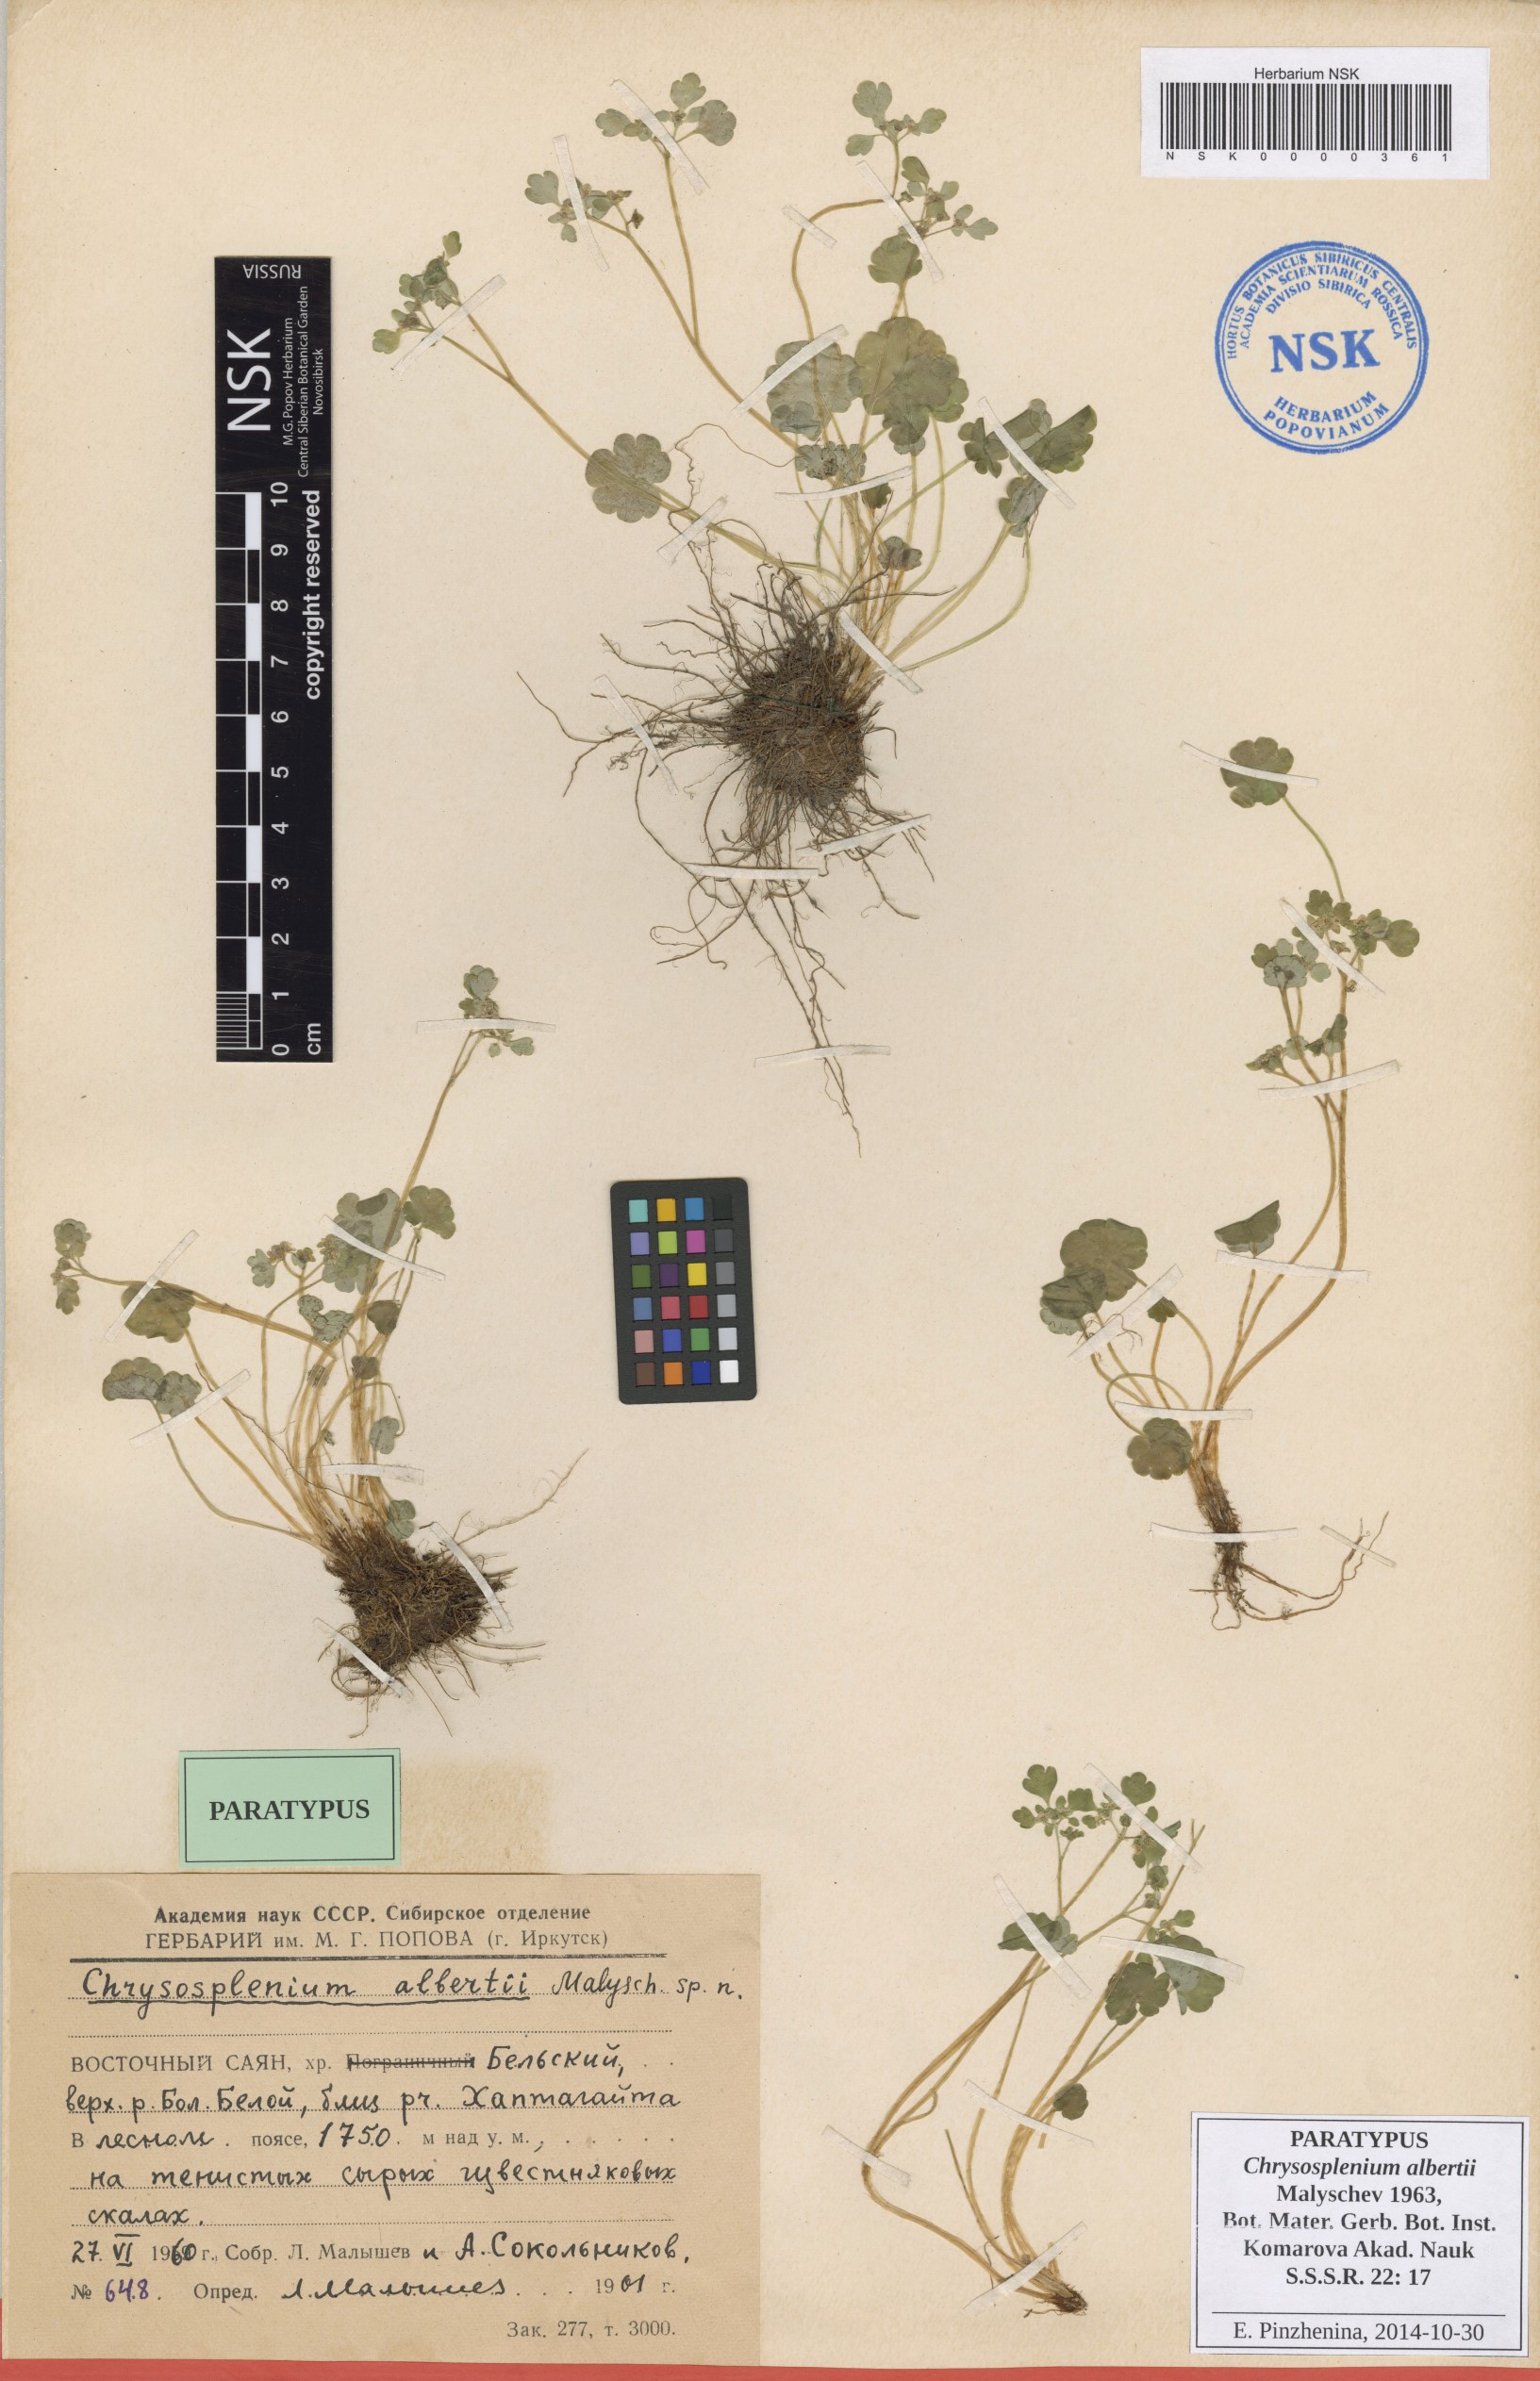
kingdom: Plantae
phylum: Tracheophyta
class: Magnoliopsida
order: Saxifragales
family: Saxifragaceae
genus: Chrysosplenium
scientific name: Chrysosplenium albertii
